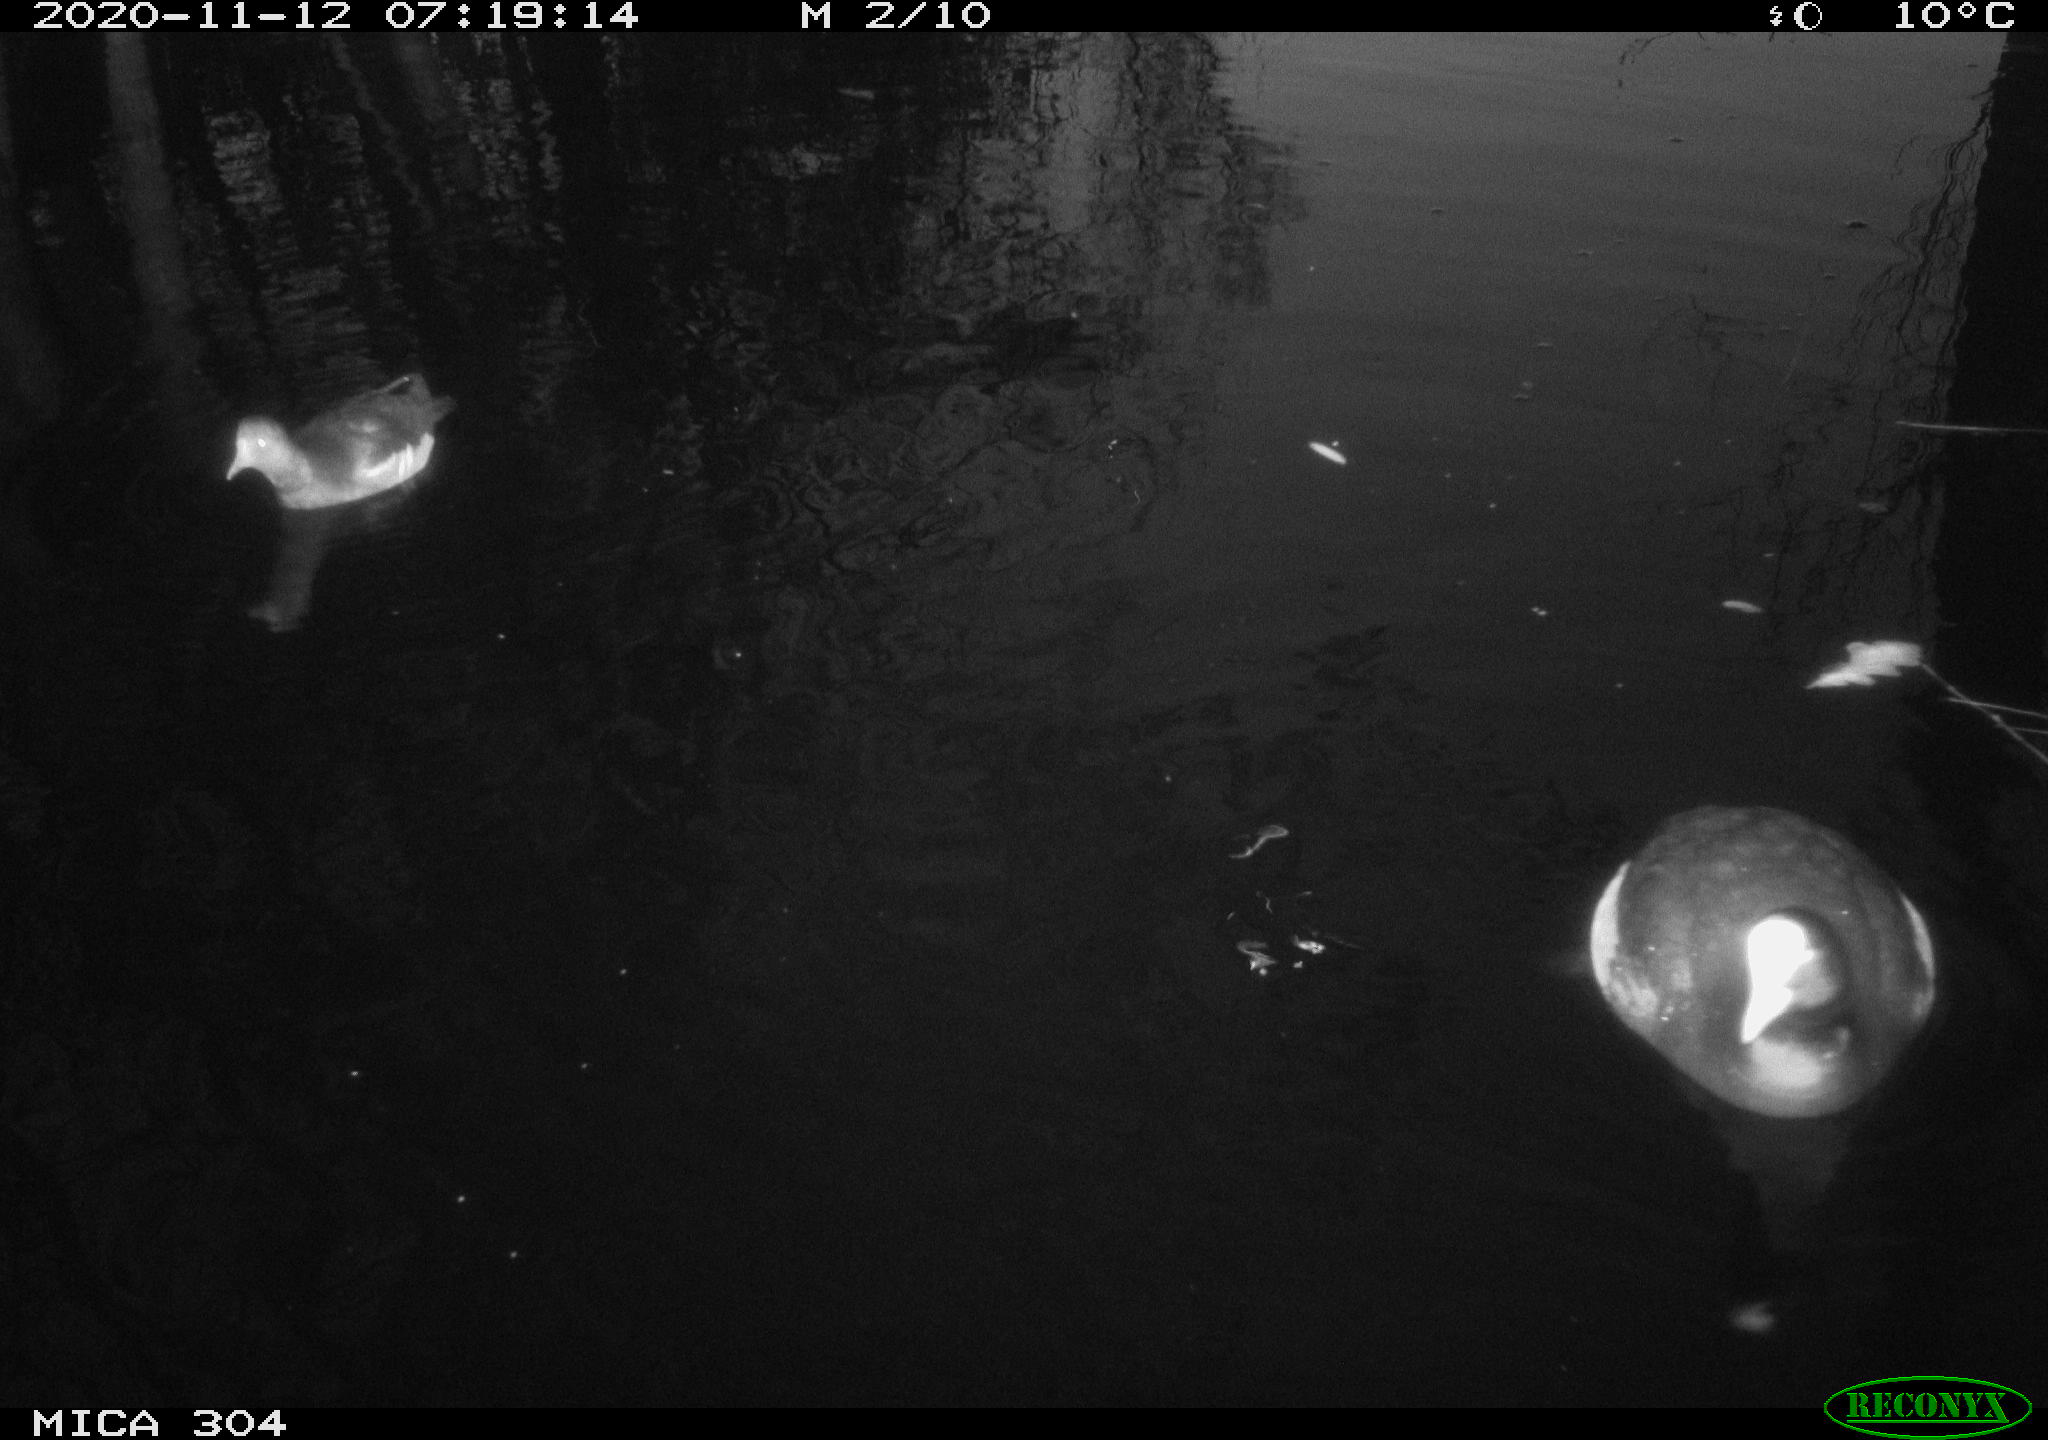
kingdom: Animalia
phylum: Chordata
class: Aves
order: Gruiformes
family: Rallidae
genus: Fulica
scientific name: Fulica atra
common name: Eurasian coot
